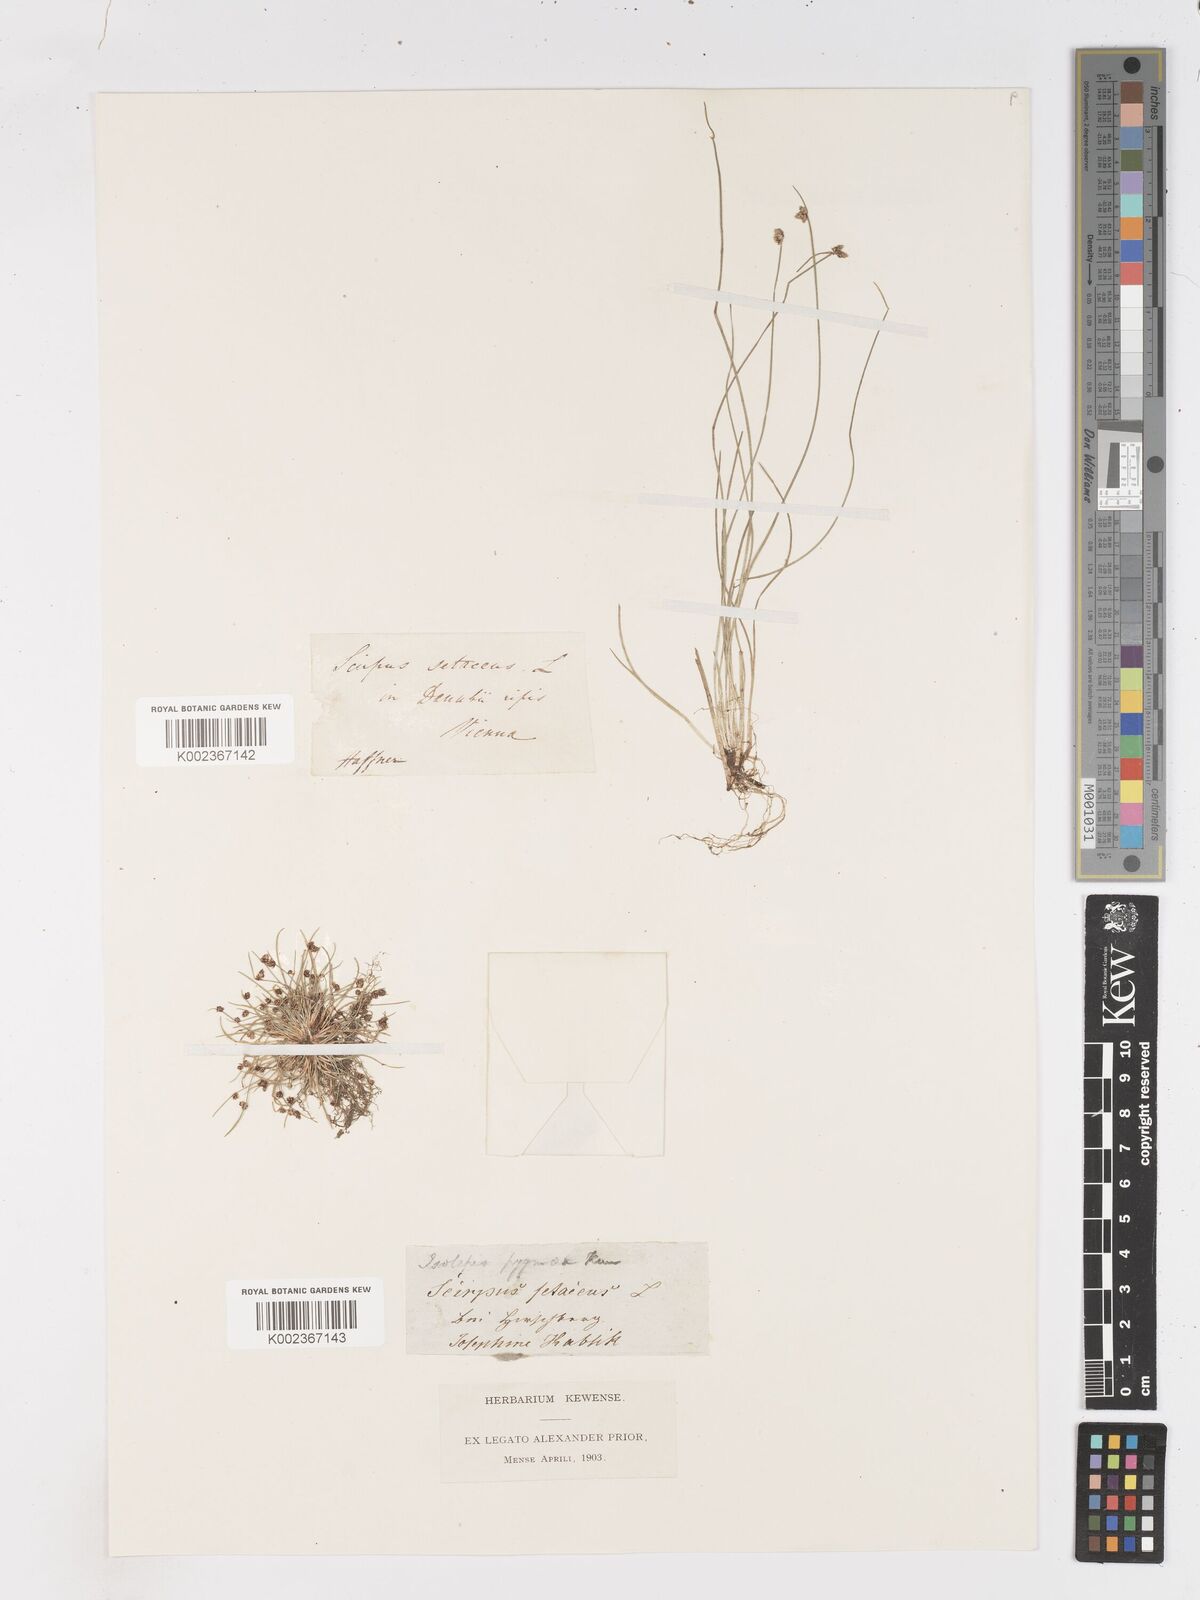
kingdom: Plantae
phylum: Tracheophyta
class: Liliopsida
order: Poales
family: Cyperaceae
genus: Isolepis
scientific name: Isolepis setacea
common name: Bristle club-rush
